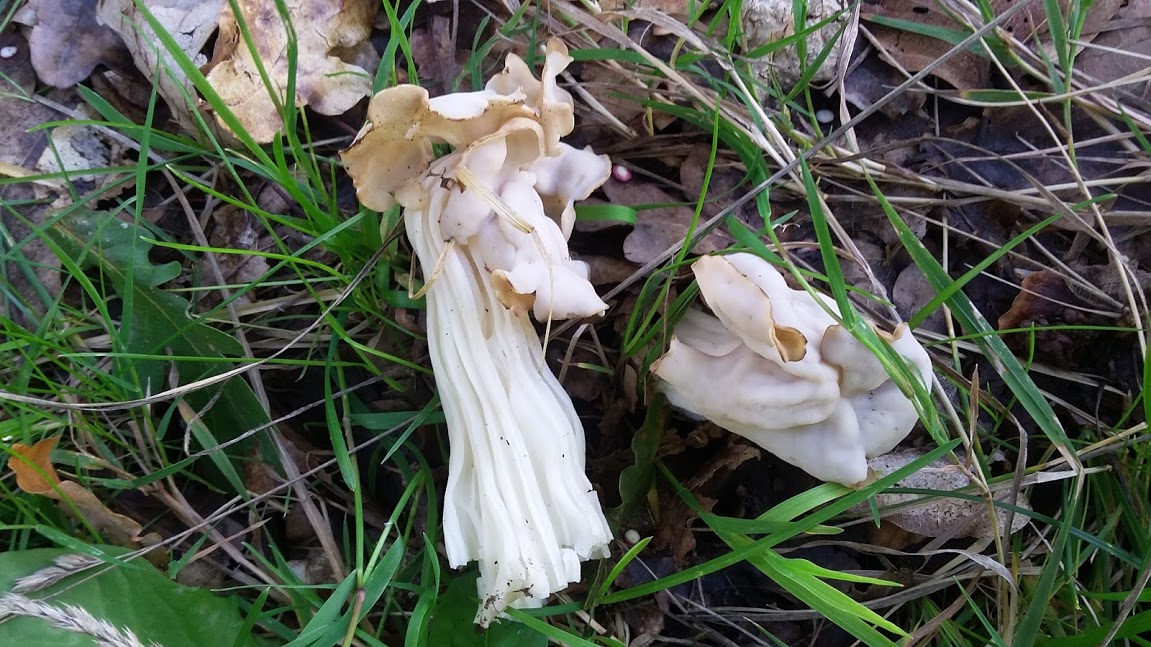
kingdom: Fungi
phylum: Ascomycota
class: Pezizomycetes
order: Pezizales
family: Helvellaceae
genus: Helvella
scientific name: Helvella crispa
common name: kruset foldhat
